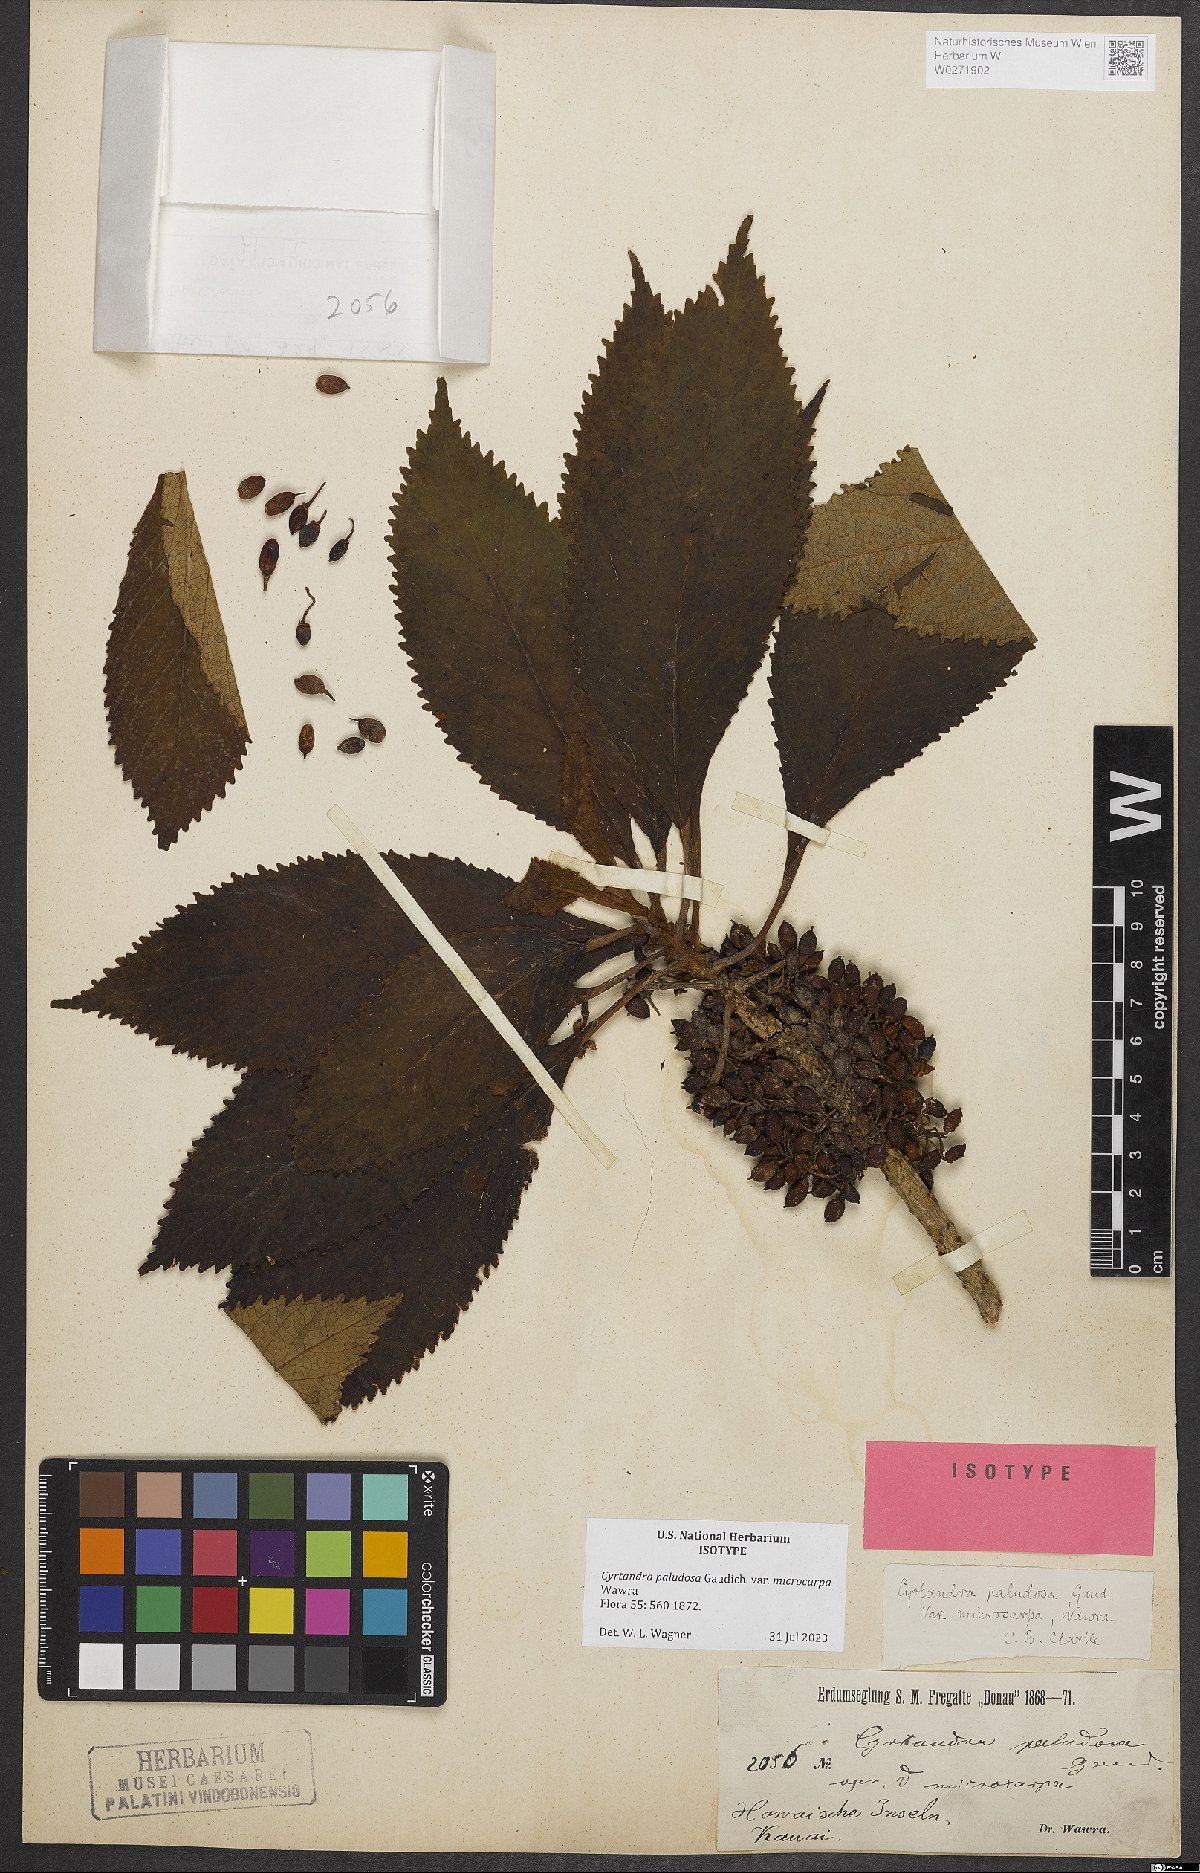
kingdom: Plantae
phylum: Tracheophyta
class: Magnoliopsida
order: Lamiales
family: Gesneriaceae
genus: Cyrtandra
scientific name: Cyrtandra paludosa
